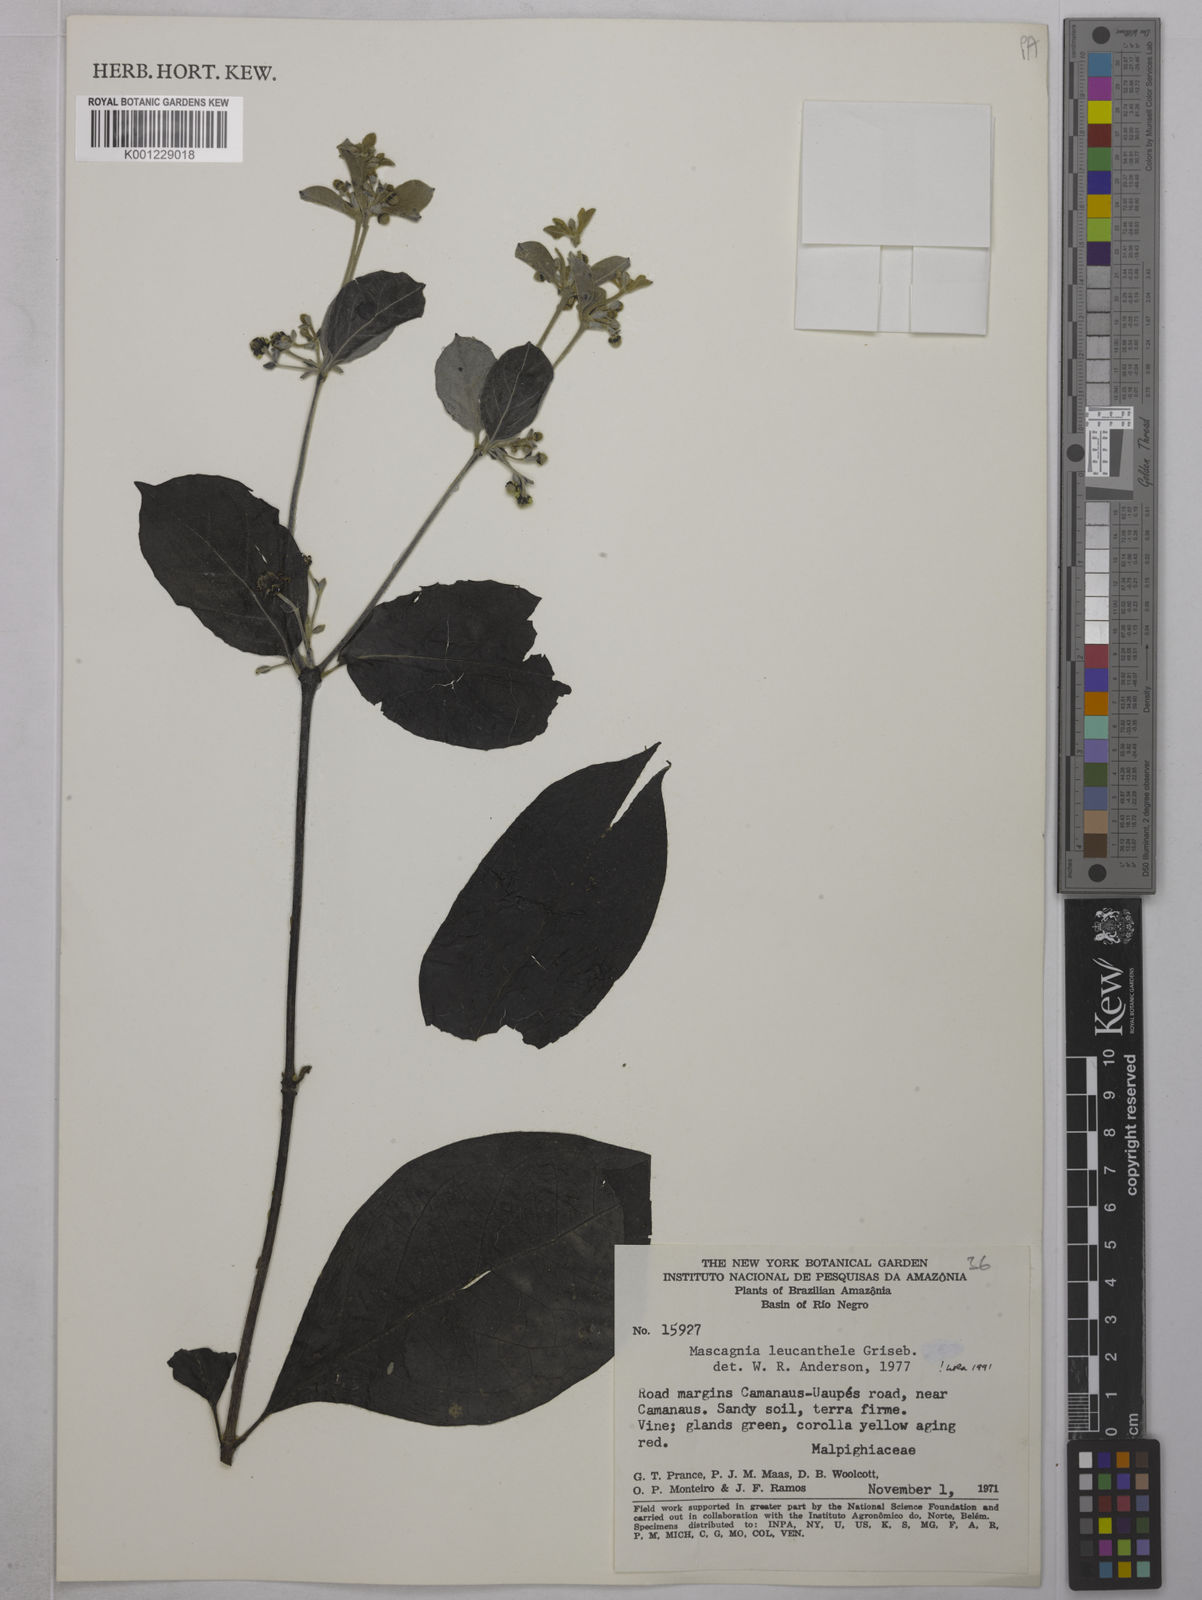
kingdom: Plantae
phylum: Tracheophyta
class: Magnoliopsida
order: Malpighiales
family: Malpighiaceae
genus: Malpighiodes
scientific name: Malpighiodes leucanthele
